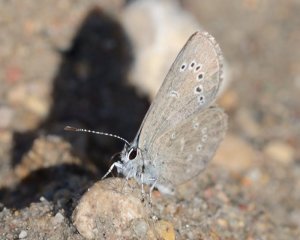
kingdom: Animalia
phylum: Arthropoda
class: Insecta
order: Lepidoptera
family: Lycaenidae
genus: Glaucopsyche
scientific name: Glaucopsyche lygdamus
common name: Silvery Blue
